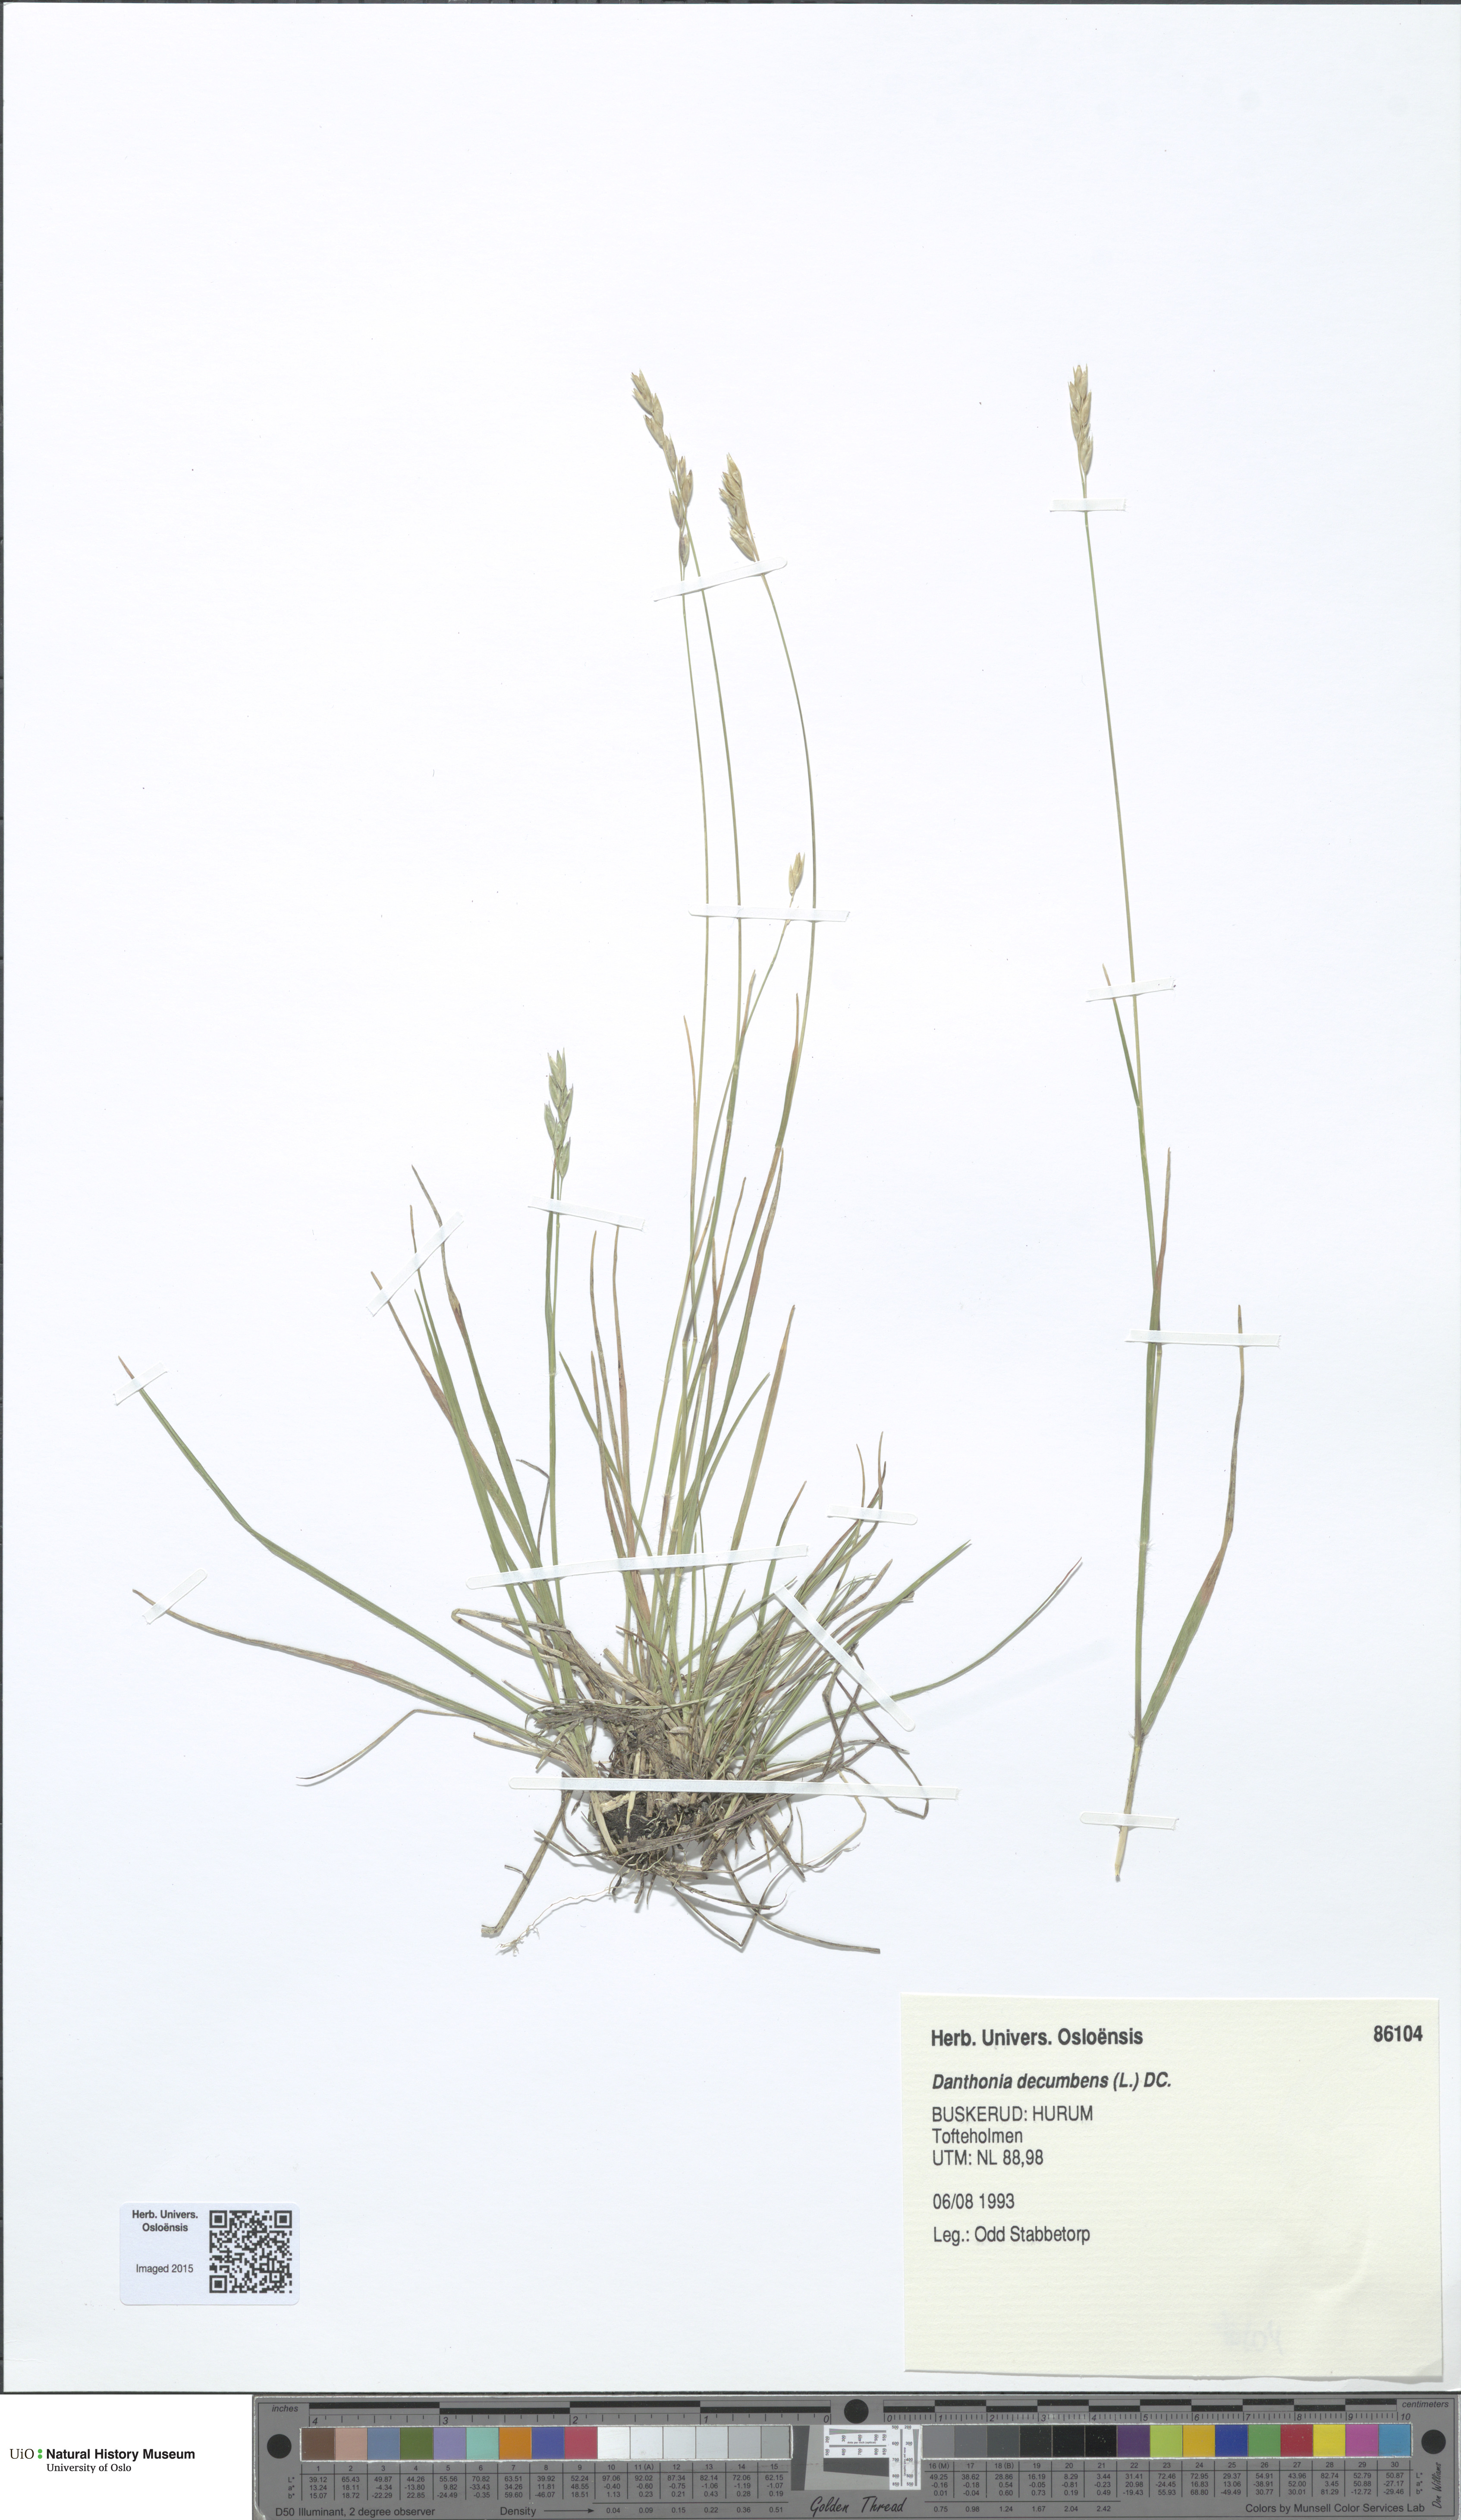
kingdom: Plantae
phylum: Tracheophyta
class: Liliopsida
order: Poales
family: Poaceae
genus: Danthonia
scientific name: Danthonia decumbens
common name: Common heathgrass
